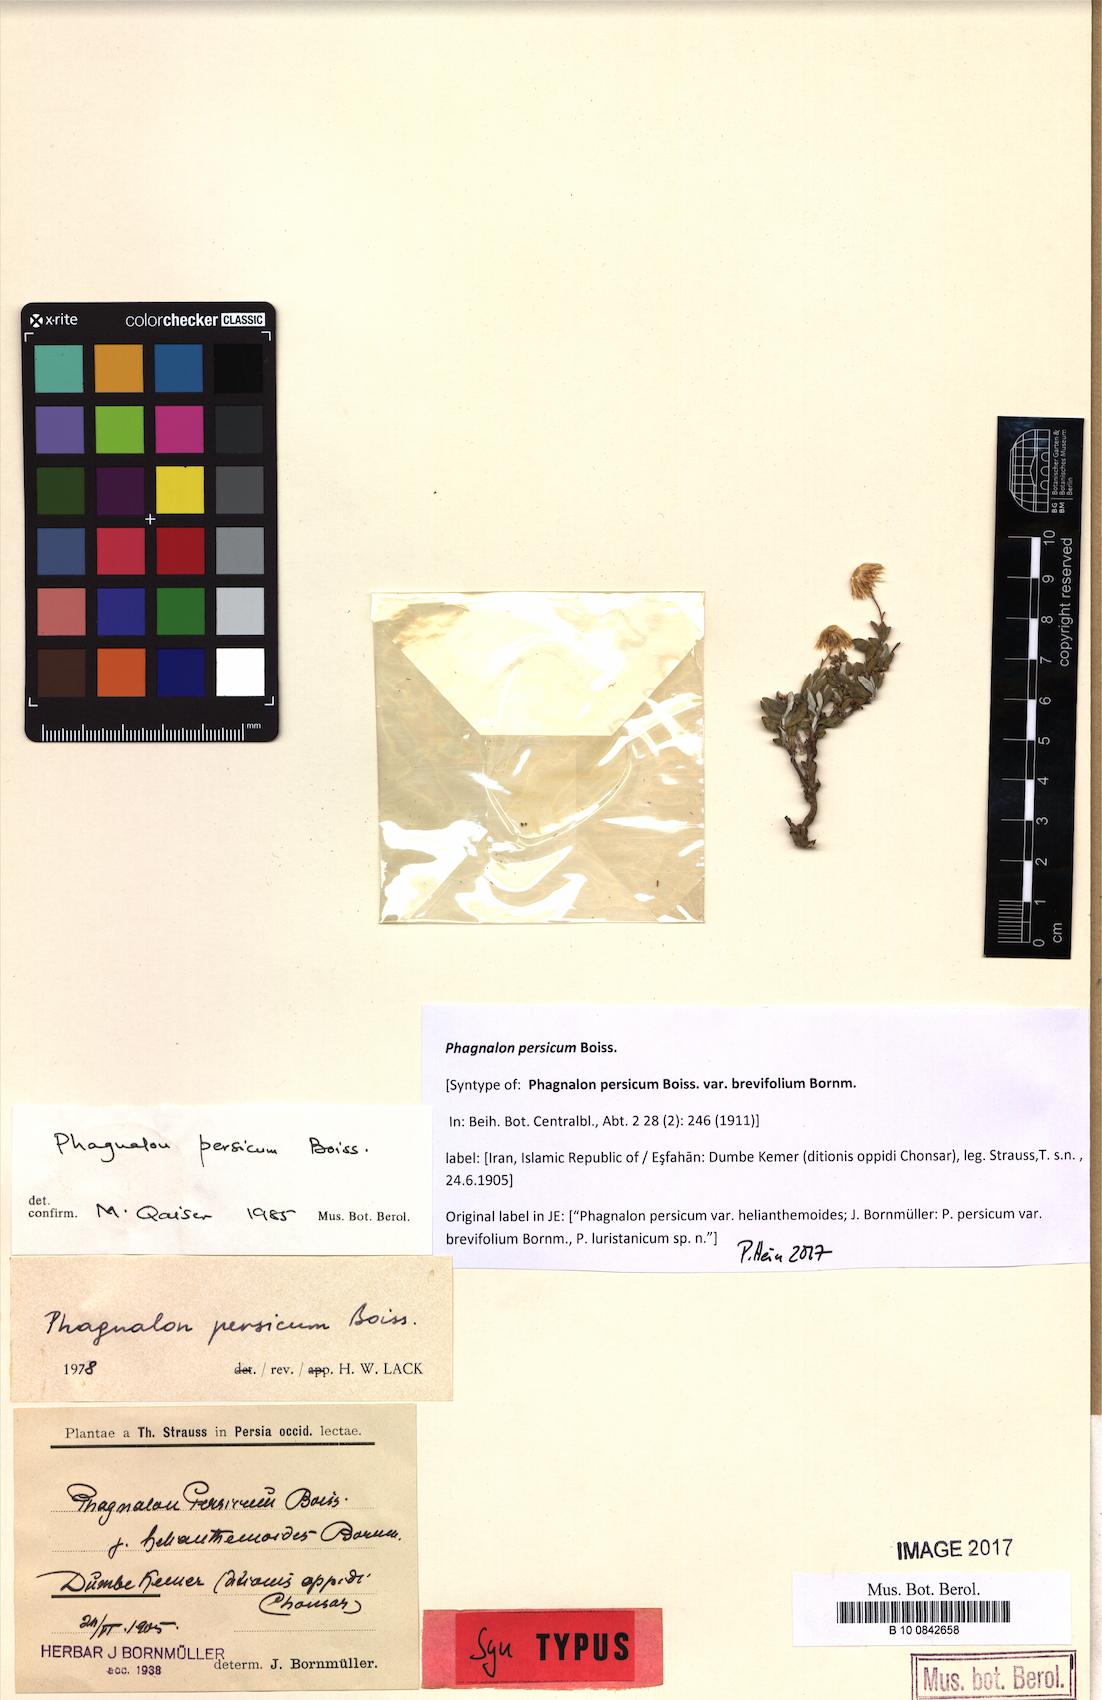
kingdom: Plantae
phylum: Tracheophyta
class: Magnoliopsida
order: Asterales
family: Asteraceae
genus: Phagnalon
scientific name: Phagnalon persicum
